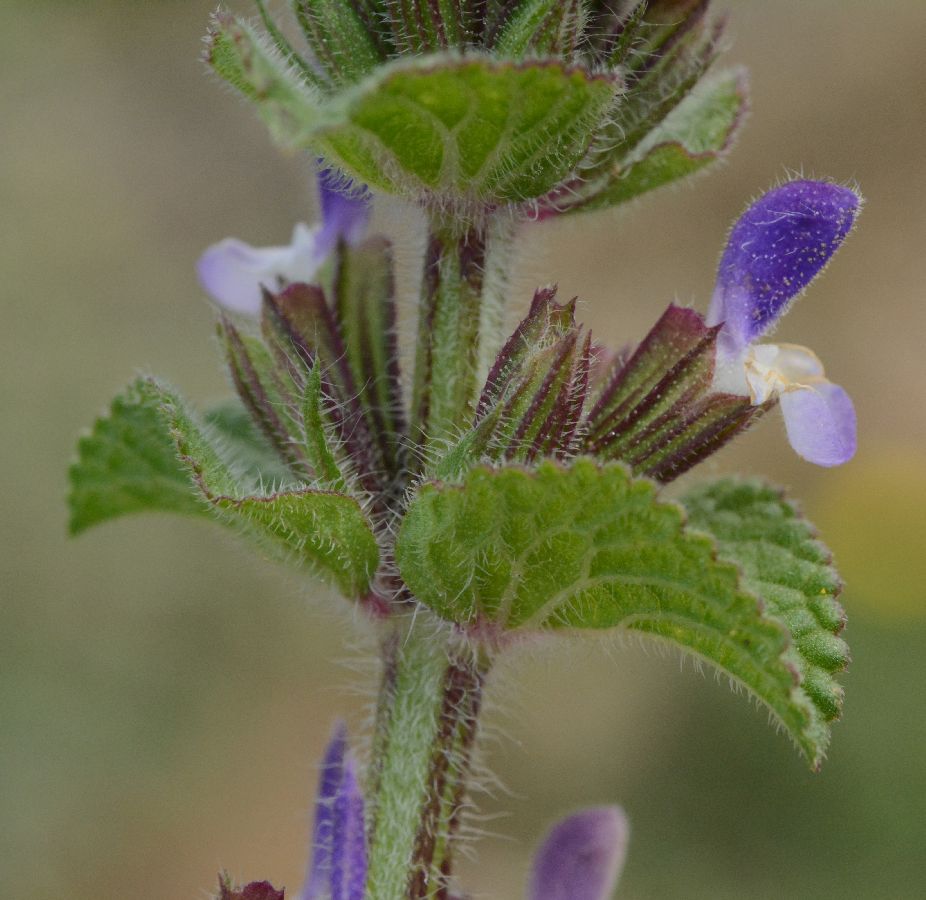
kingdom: Plantae
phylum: Tracheophyta
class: Magnoliopsida
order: Lamiales
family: Lamiaceae
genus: Salvia
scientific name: Salvia viridis
